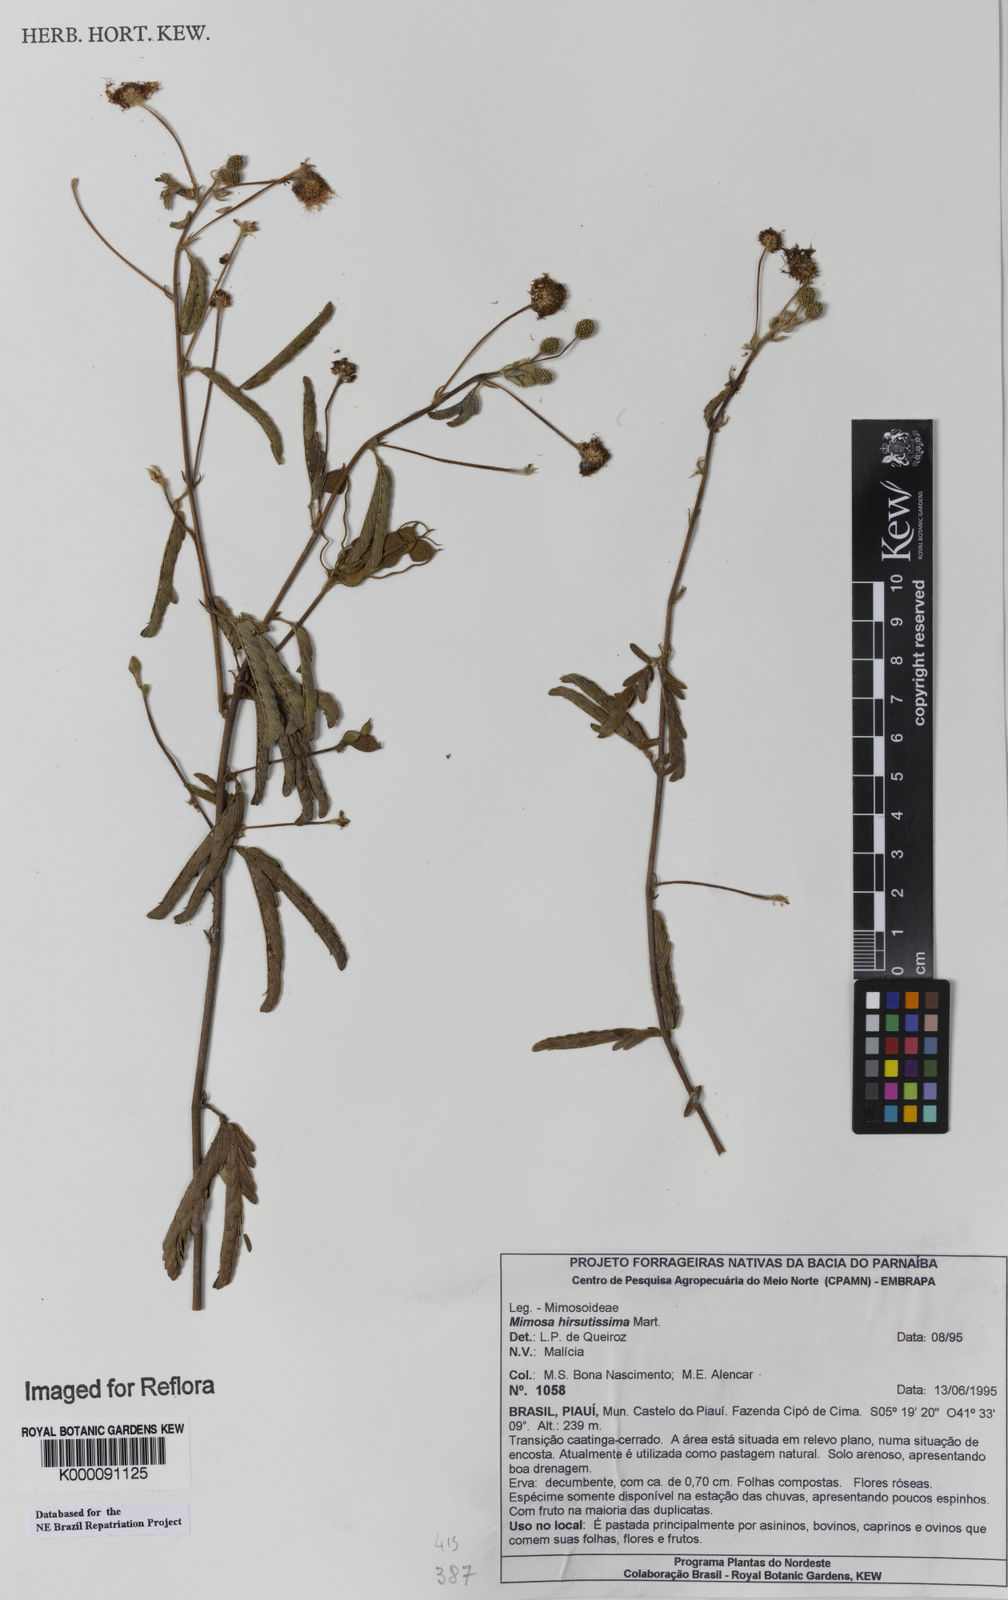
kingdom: Plantae
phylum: Tracheophyta
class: Magnoliopsida
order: Fabales
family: Fabaceae
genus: Mimosa
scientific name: Mimosa hirsutissima
